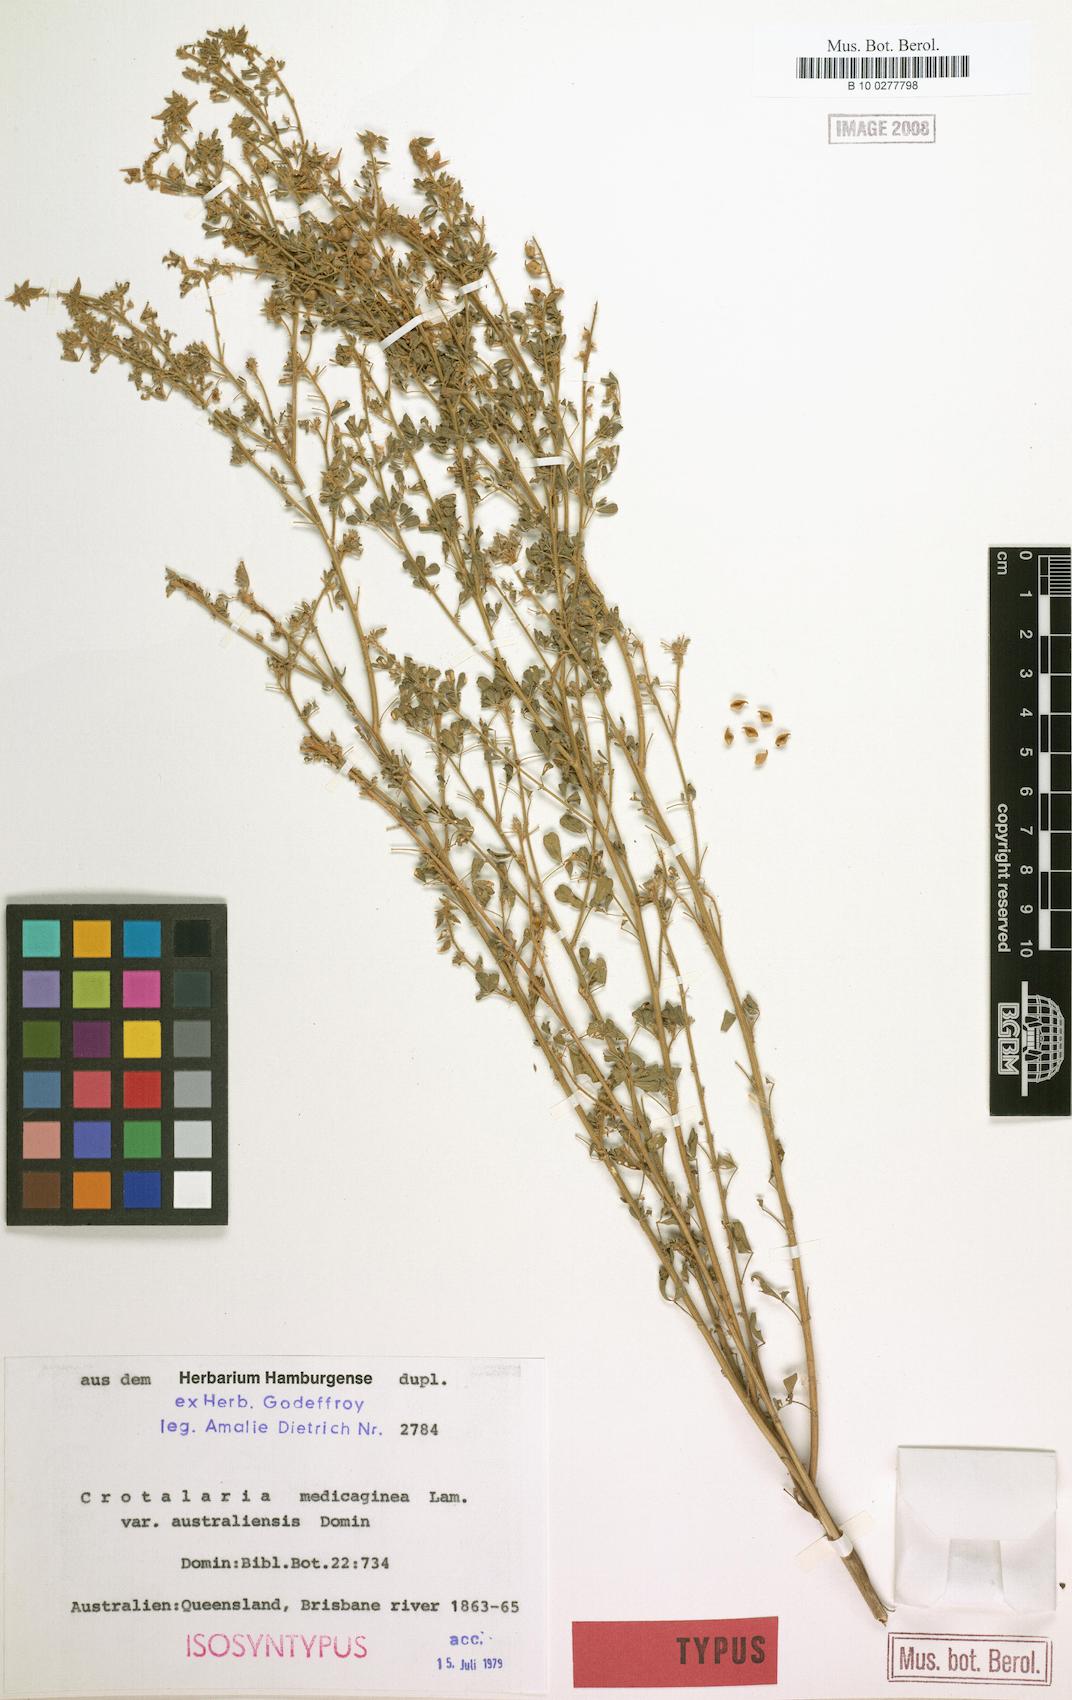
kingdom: Plantae
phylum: Tracheophyta
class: Magnoliopsida
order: Fabales
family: Fabaceae
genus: Crotalaria
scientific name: Crotalaria medicaginea
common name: Trefoil rattlepod
